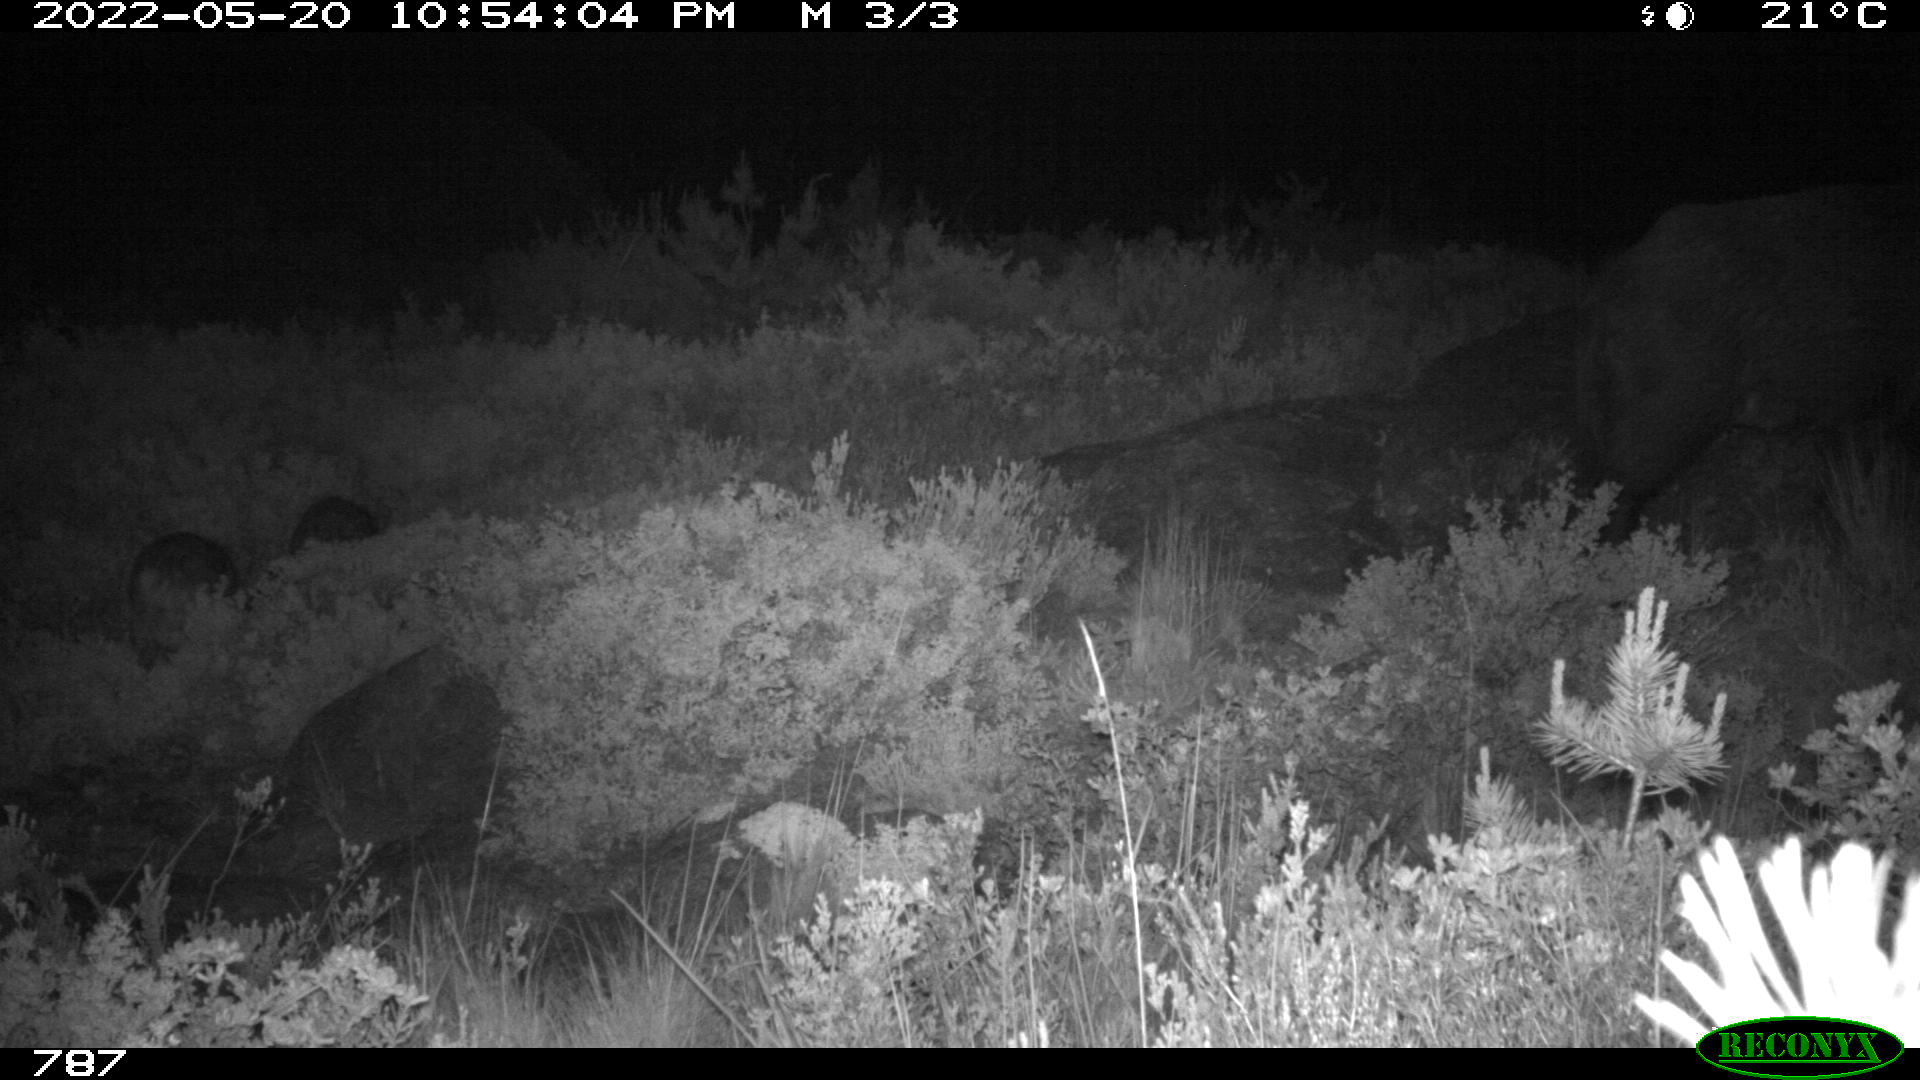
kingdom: Animalia
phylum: Chordata
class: Mammalia
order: Artiodactyla
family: Suidae
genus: Sus
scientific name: Sus scrofa
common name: Wild boar
